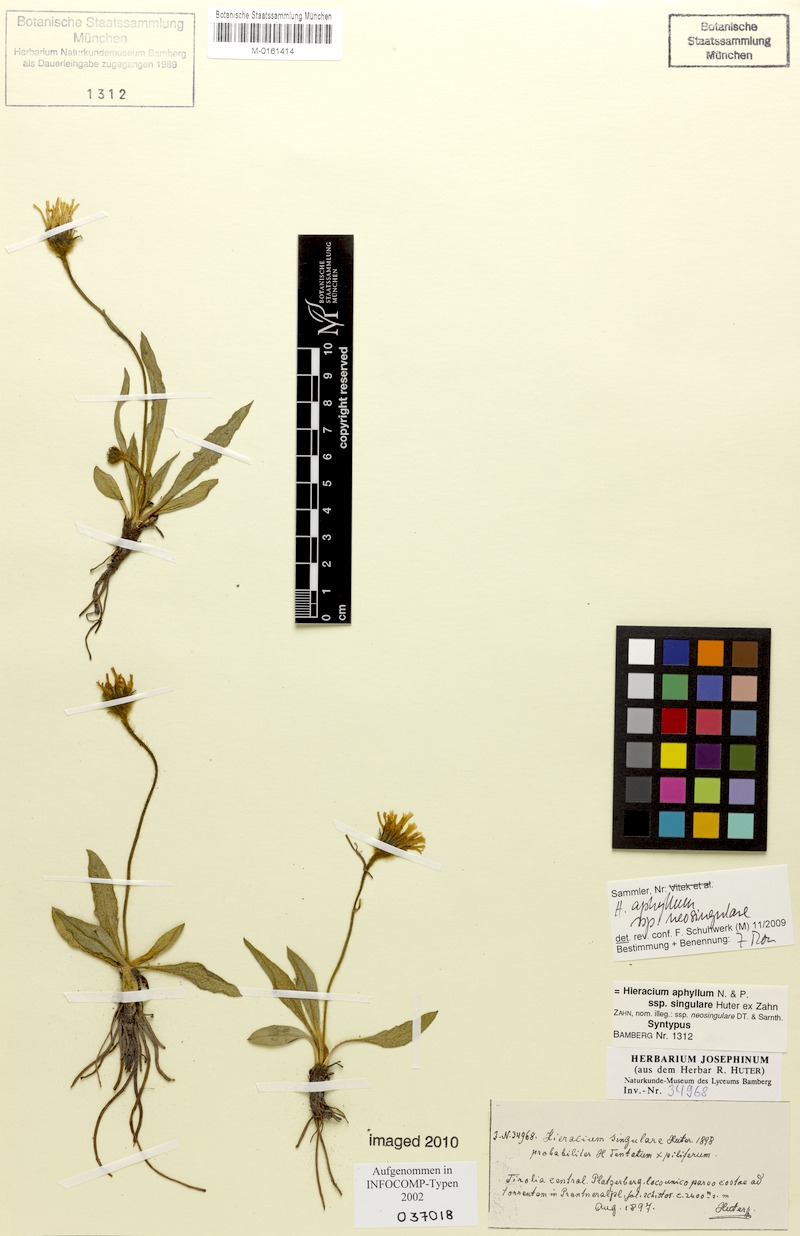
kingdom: Plantae
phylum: Tracheophyta
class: Magnoliopsida
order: Asterales
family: Asteraceae
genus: Hieracium
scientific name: Hieracium aphyllum
